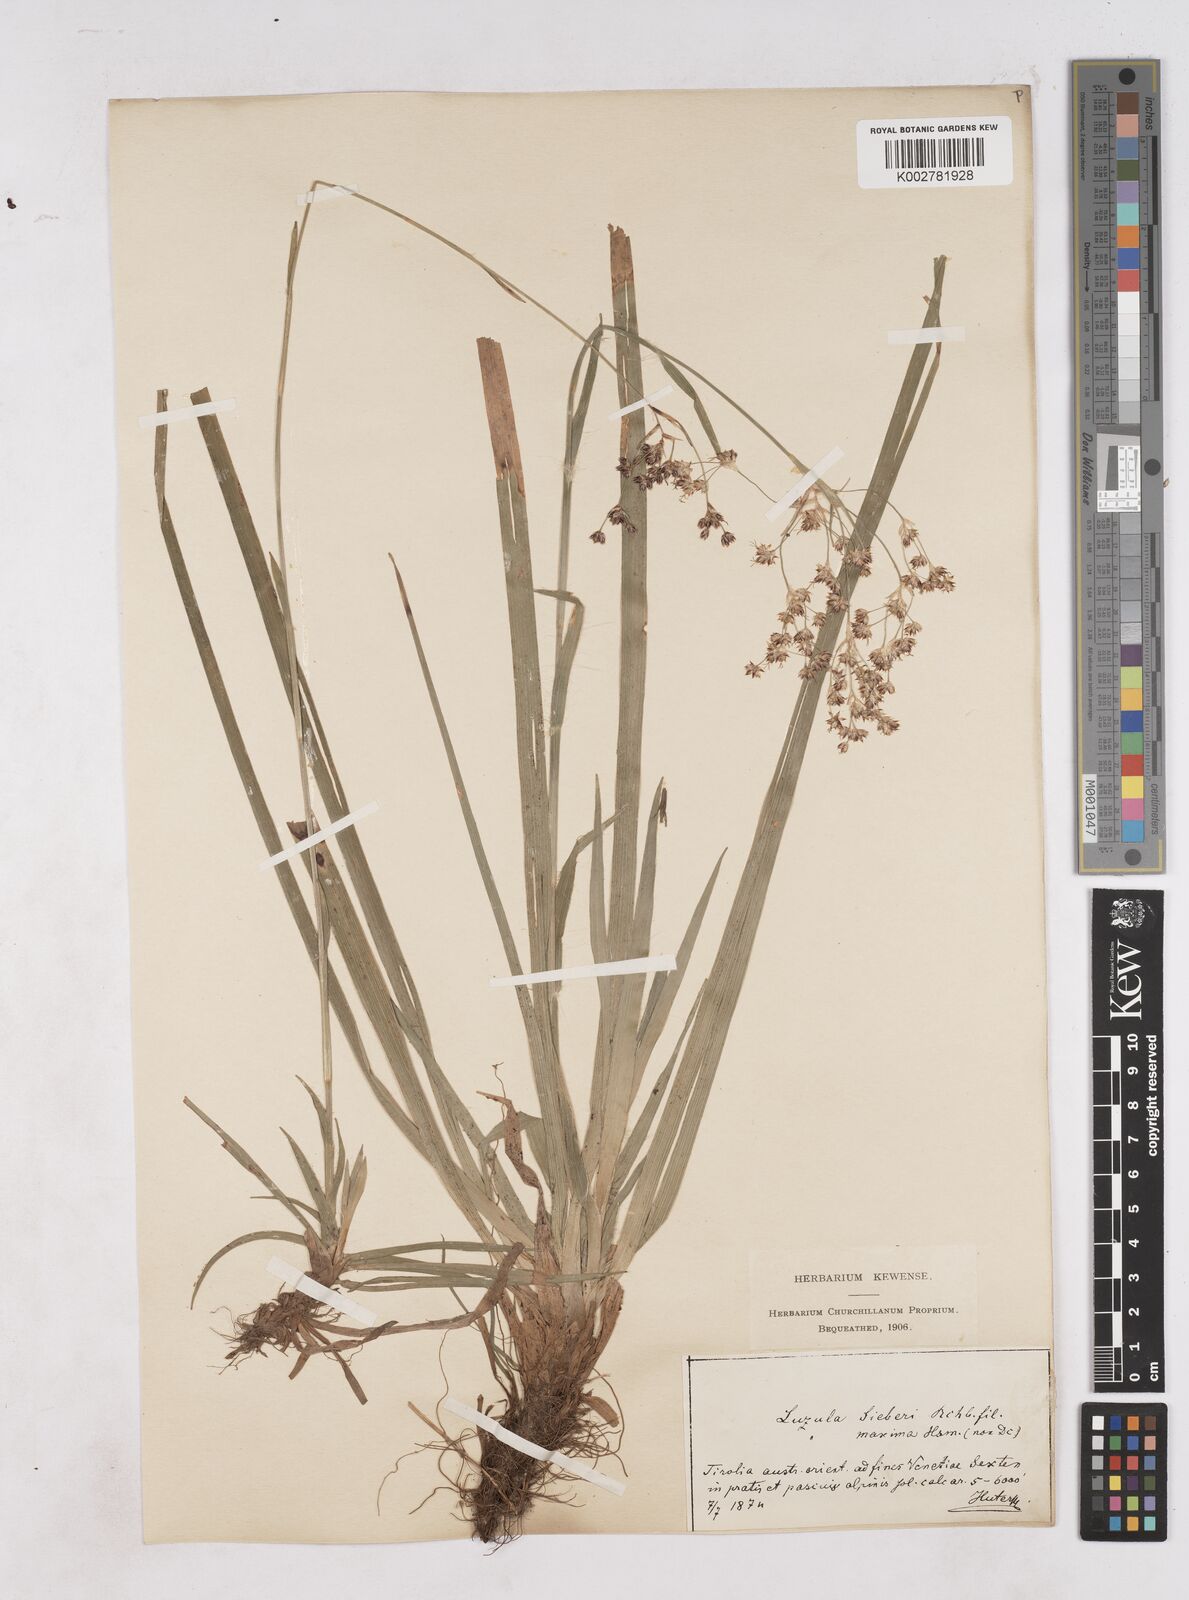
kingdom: Plantae
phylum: Tracheophyta
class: Liliopsida
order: Poales
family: Juncaceae
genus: Luzula
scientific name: Luzula sylvatica
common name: Great wood-rush
